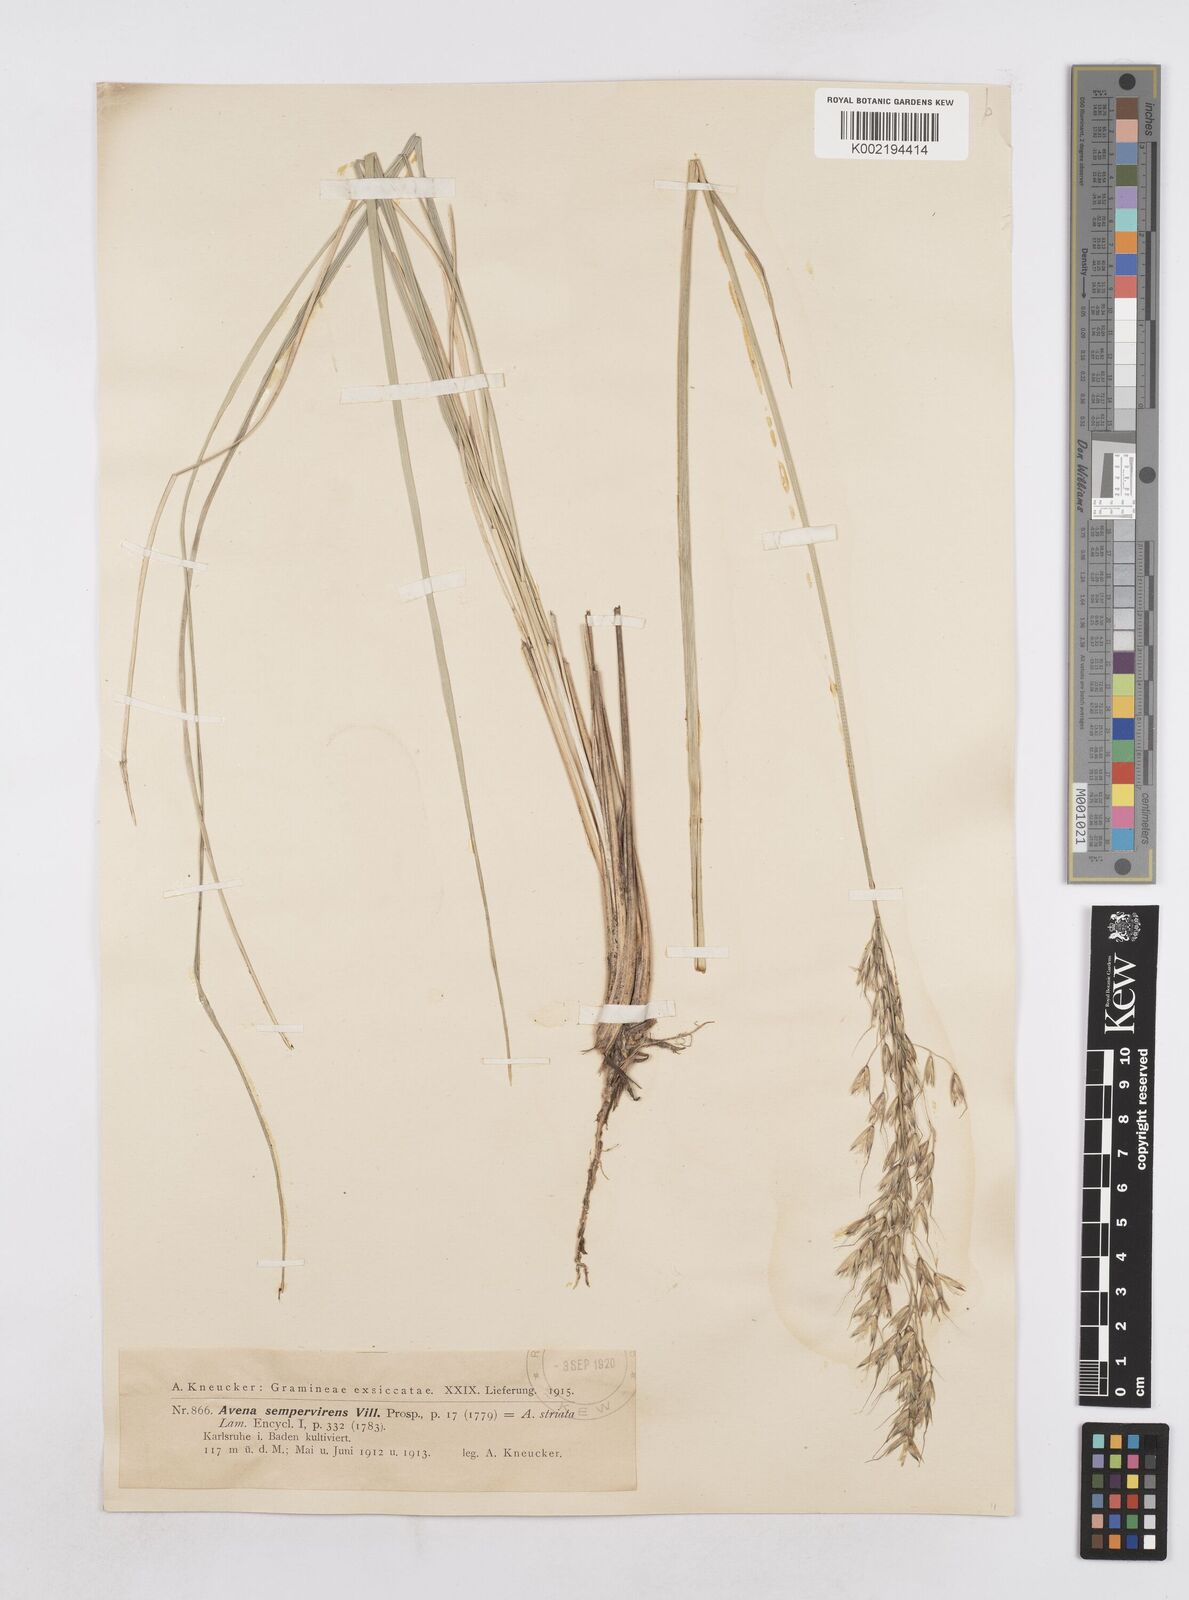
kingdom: Plantae
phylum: Tracheophyta
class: Liliopsida
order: Poales
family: Poaceae
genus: Helictotrichon
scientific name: Helictotrichon sempervirens
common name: Blue oat-grass
